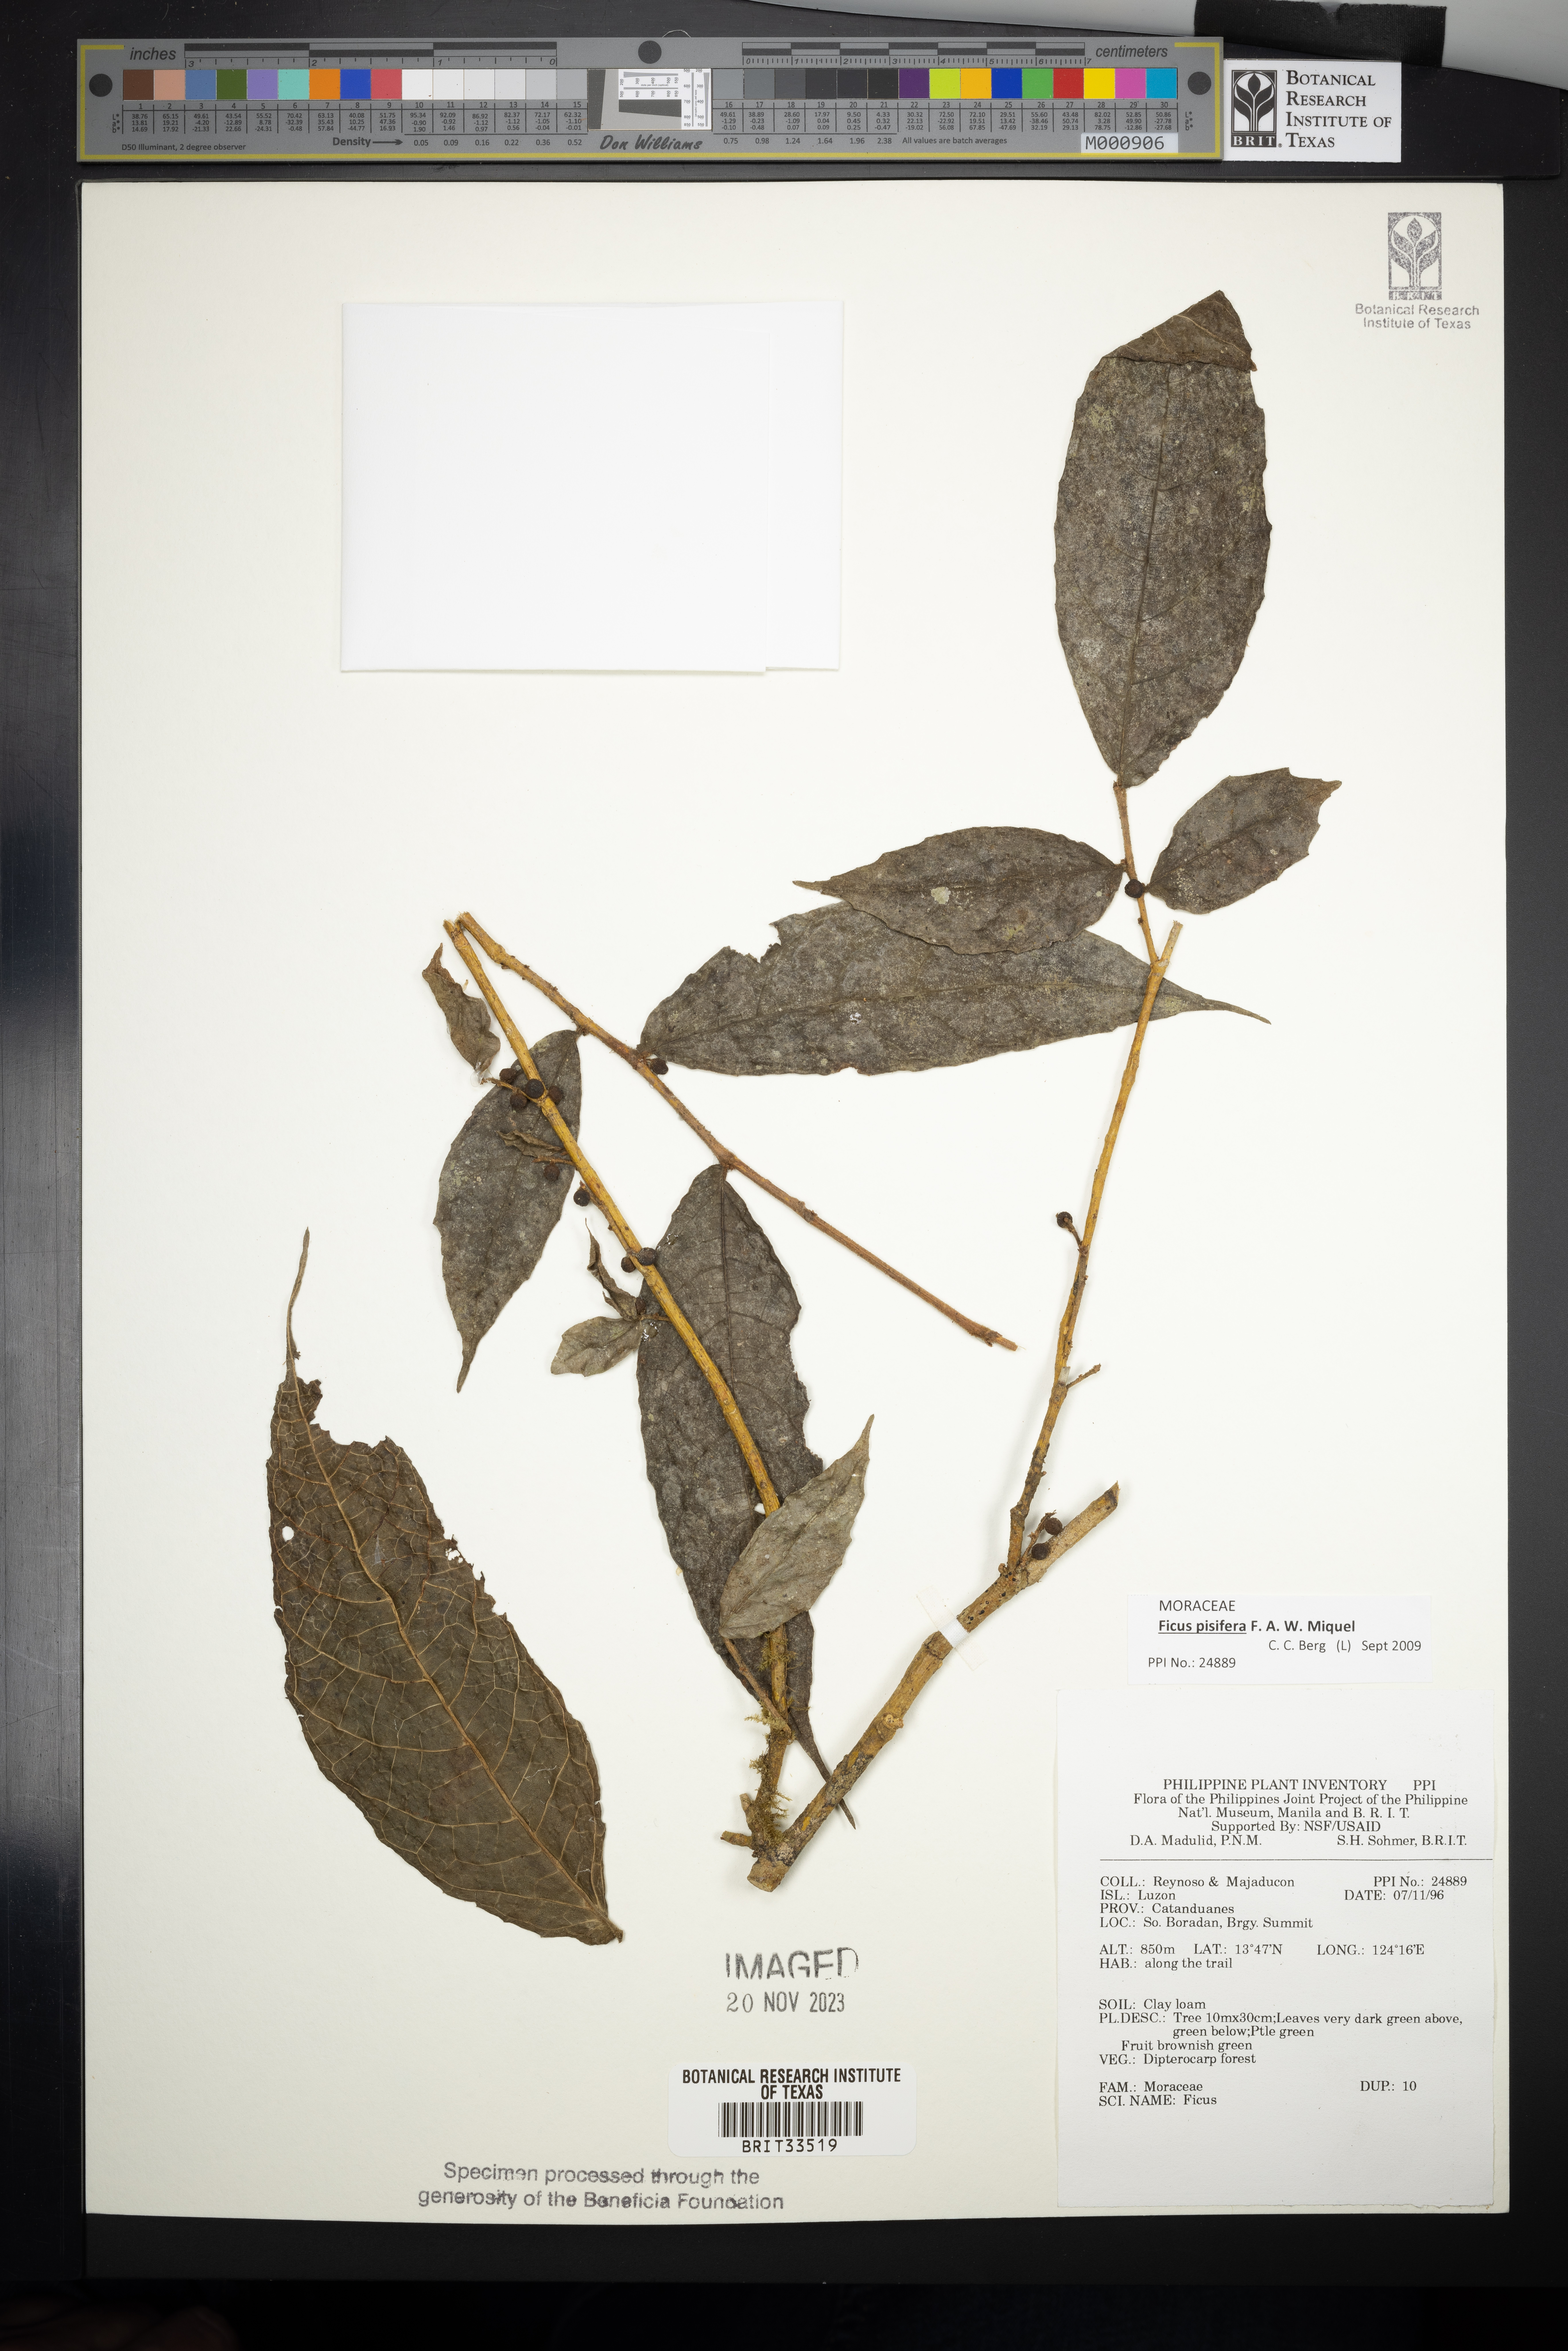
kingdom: Plantae
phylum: Tracheophyta
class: Magnoliopsida
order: Rosales
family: Moraceae
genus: Ficus
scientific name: Ficus
